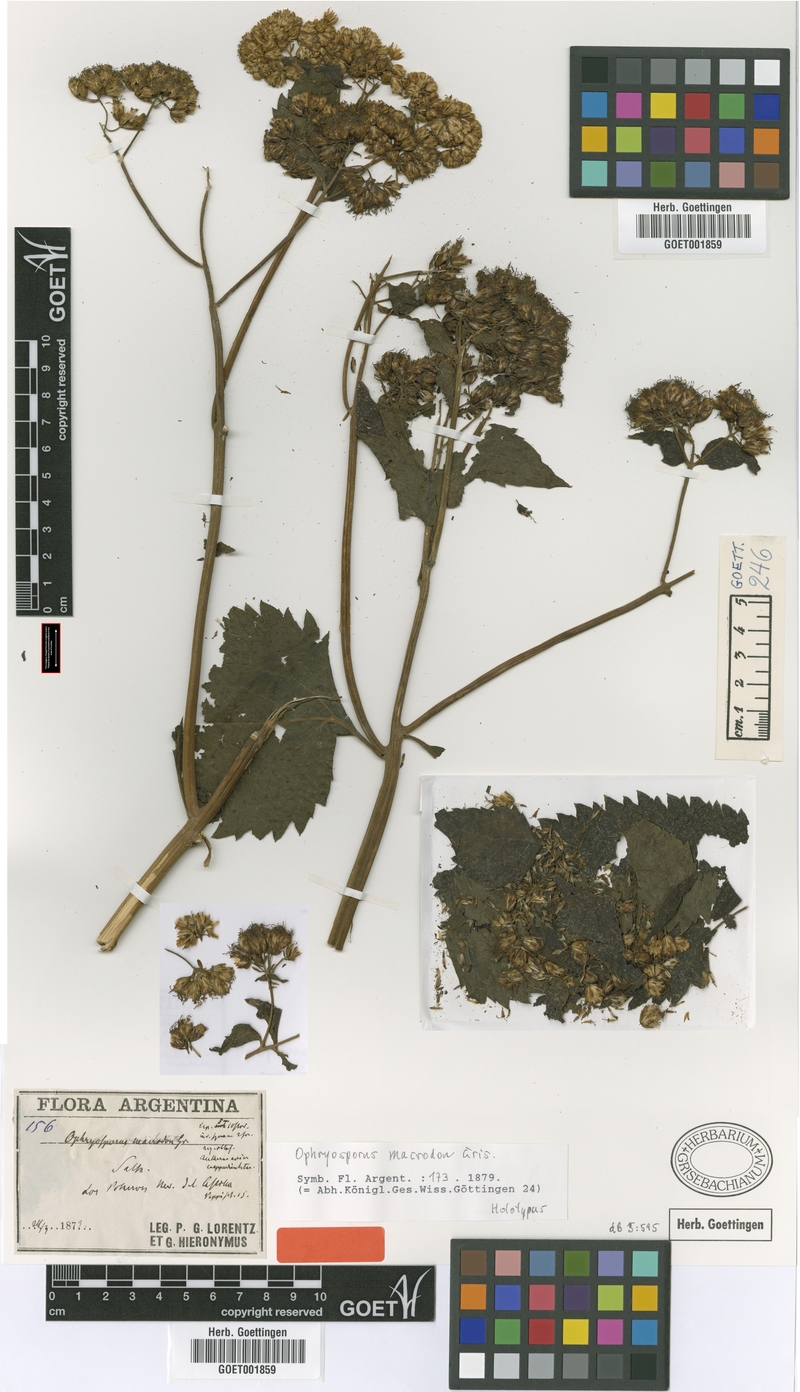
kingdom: Plantae
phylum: Tracheophyta
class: Magnoliopsida
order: Asterales
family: Asteraceae
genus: Ophryosporus
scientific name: Ophryosporus macrodon
